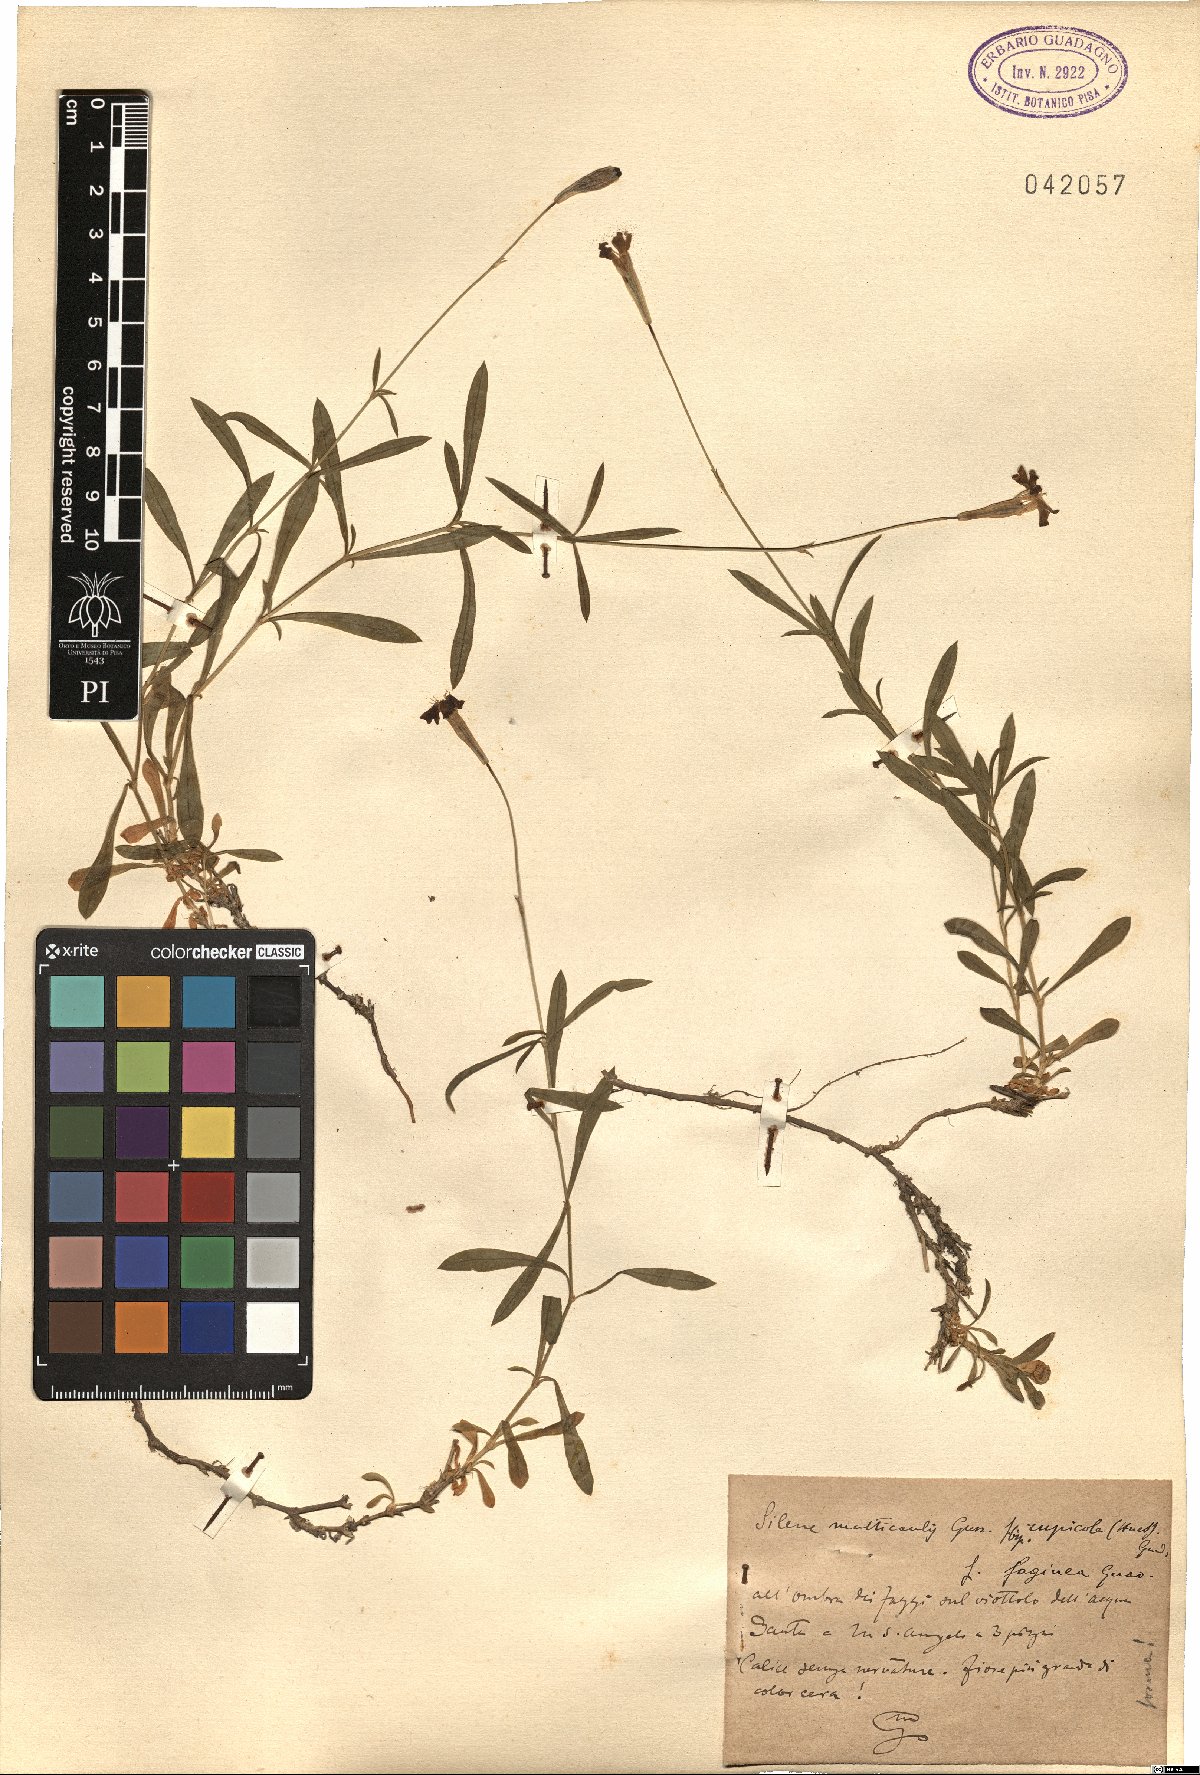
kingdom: Plantae
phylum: Tracheophyta
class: Magnoliopsida
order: Caryophyllales
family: Caryophyllaceae
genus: Silene
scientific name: Silene saxifraga
